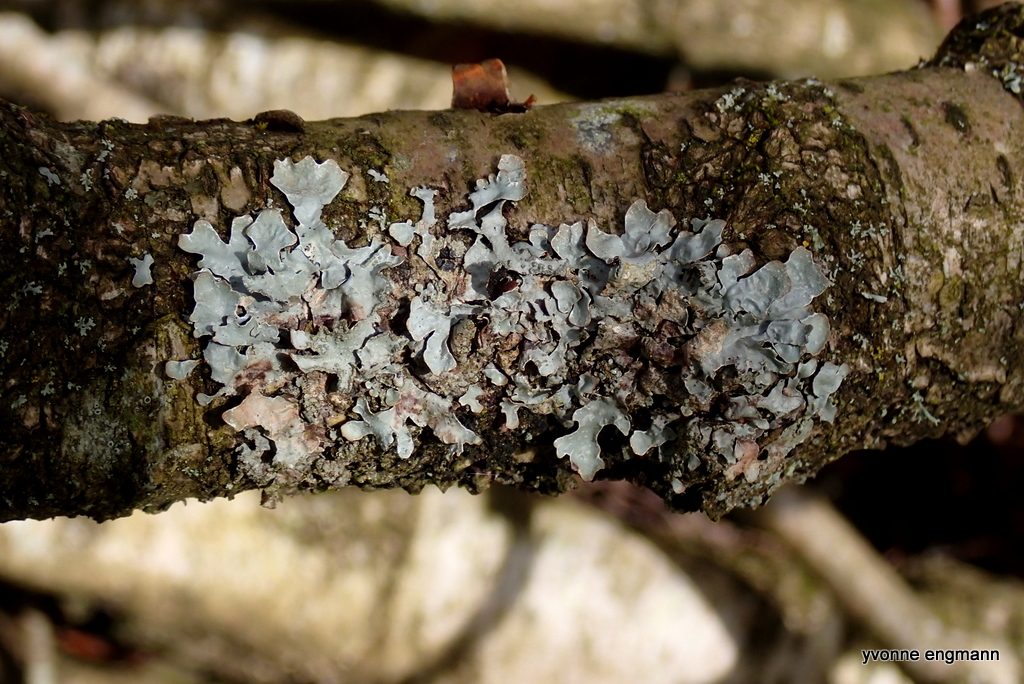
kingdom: Fungi
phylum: Ascomycota
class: Lecanoromycetes
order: Lecanorales
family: Parmeliaceae
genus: Parmelia
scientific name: Parmelia sulcata
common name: rynket skållav
